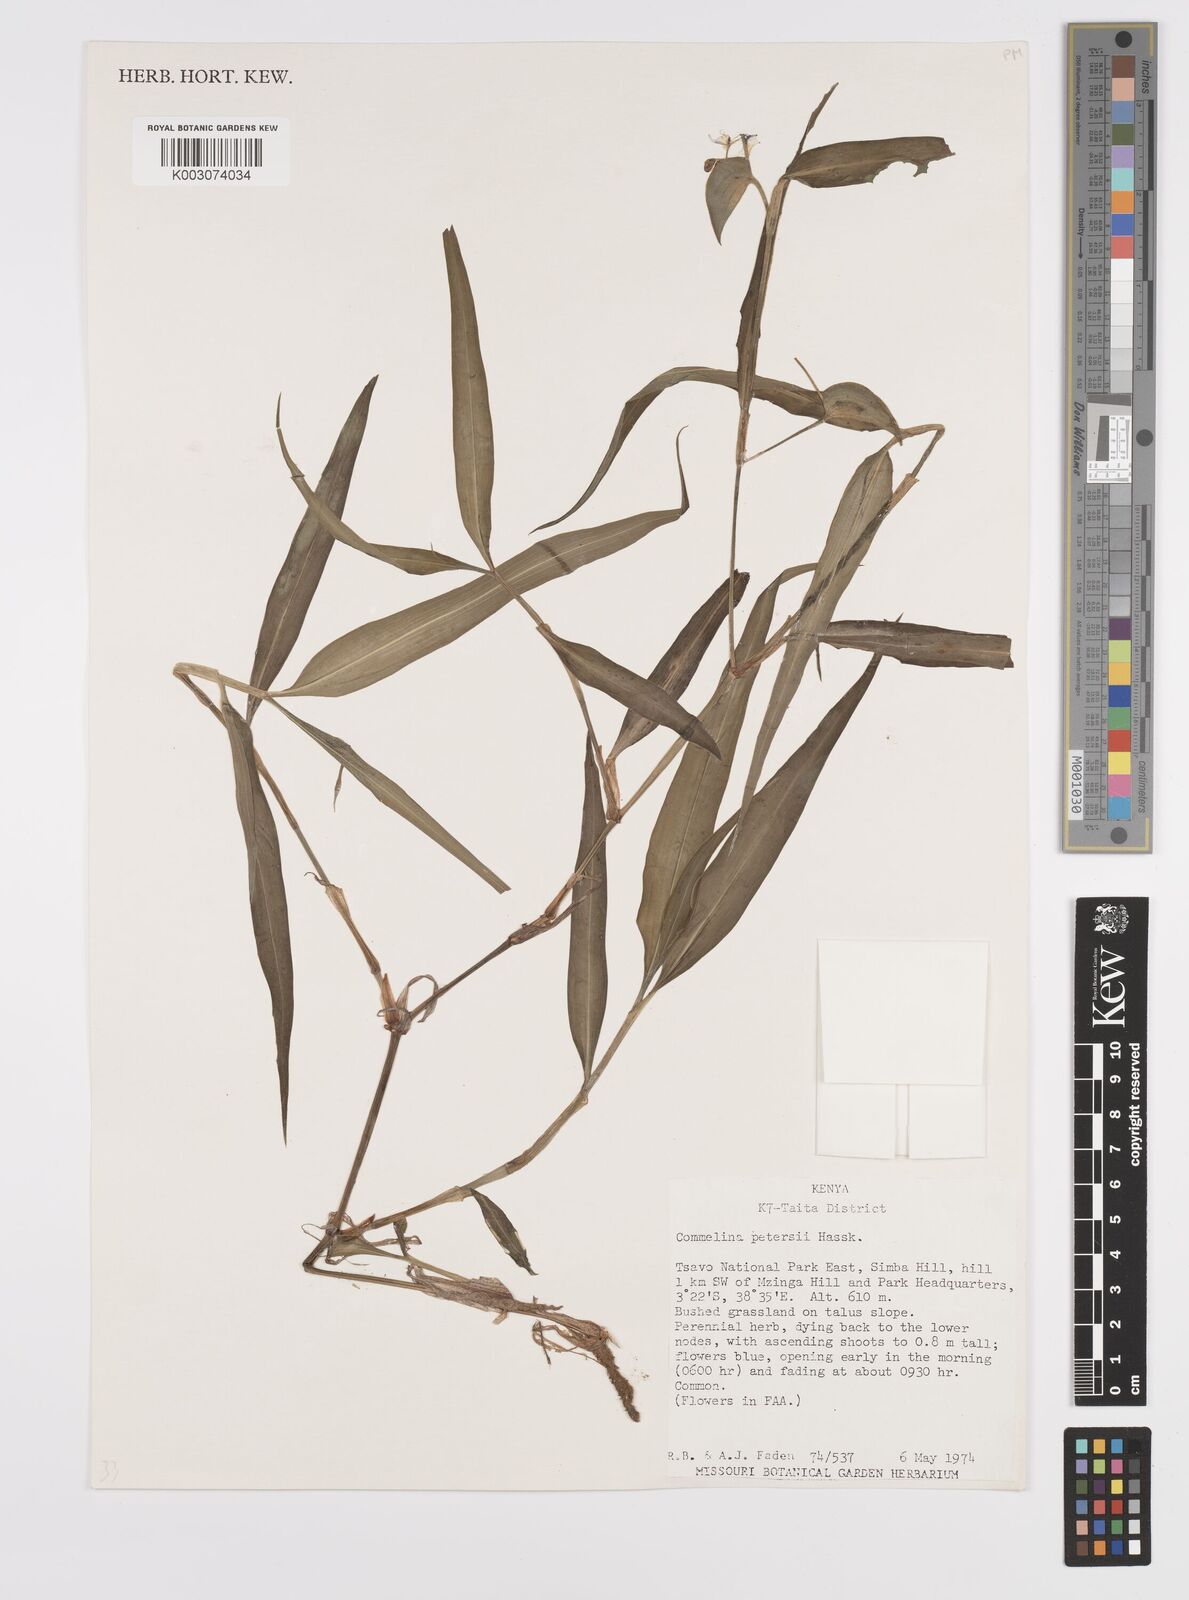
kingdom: Plantae
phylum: Tracheophyta
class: Liliopsida
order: Commelinales
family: Commelinaceae
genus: Commelina
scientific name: Commelina petersii
